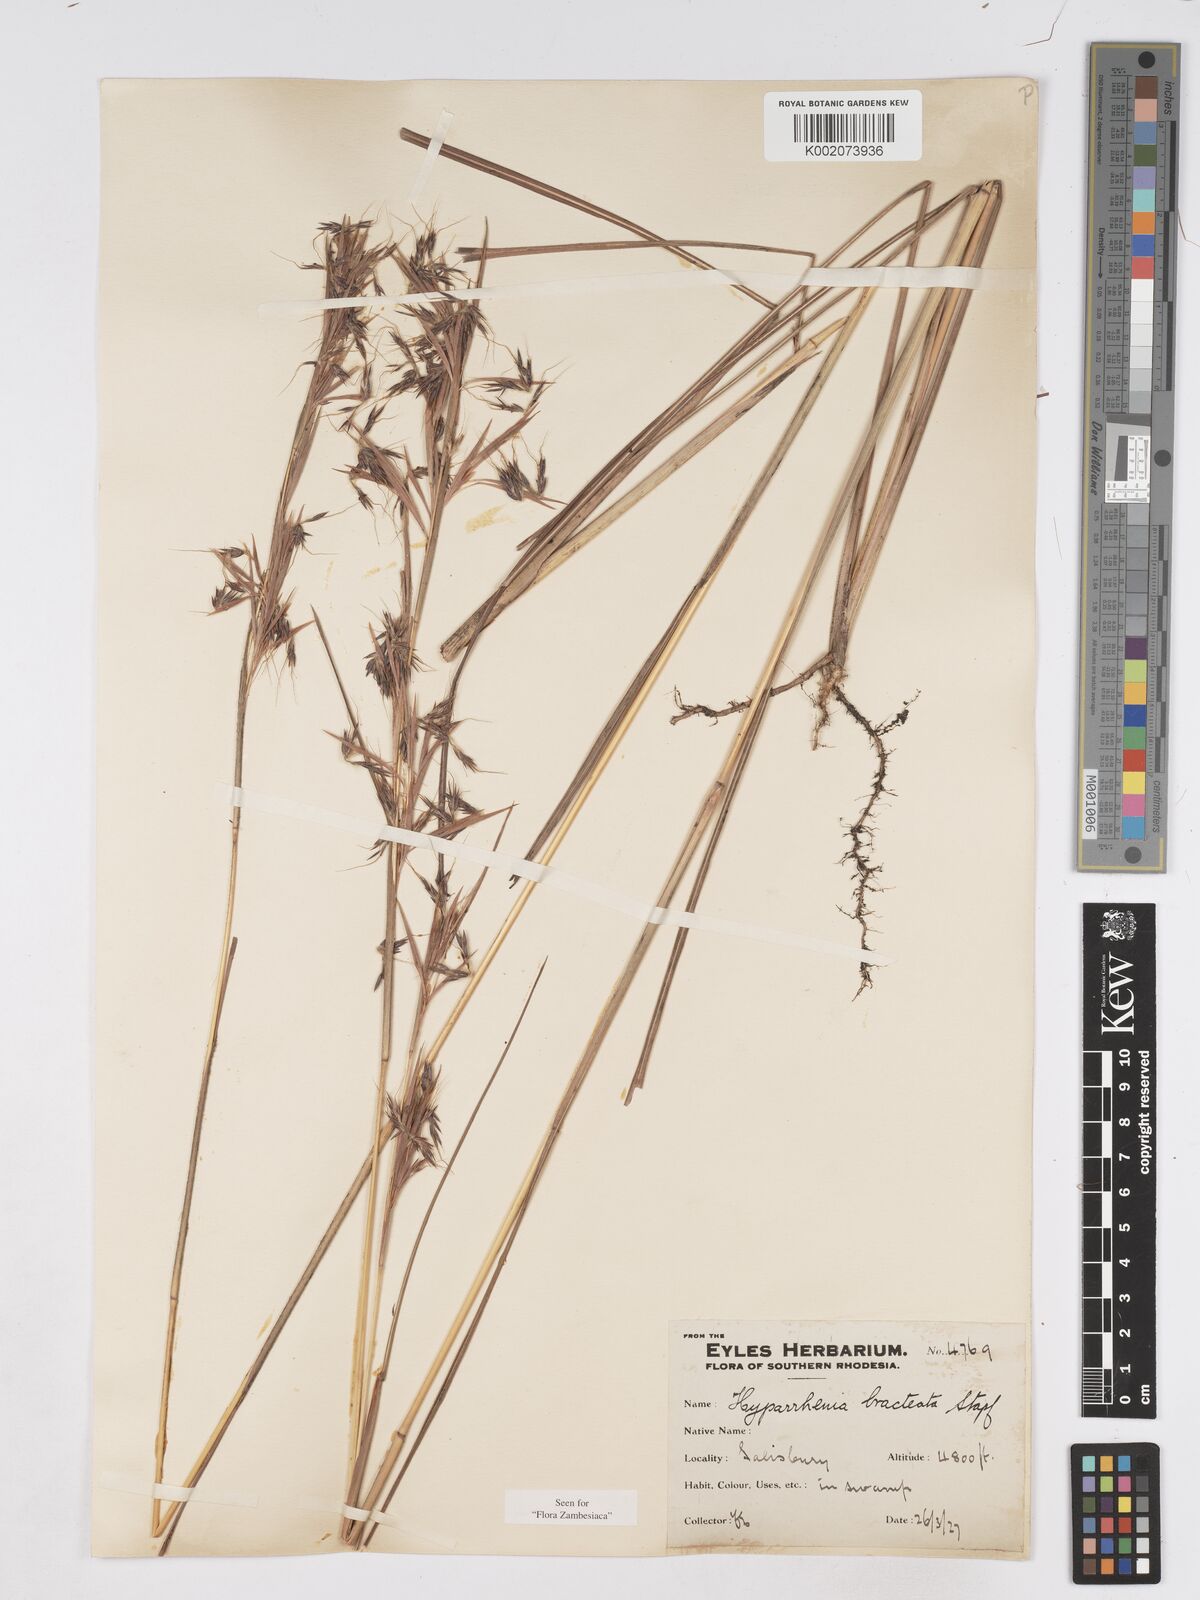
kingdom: Plantae
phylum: Tracheophyta
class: Liliopsida
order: Poales
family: Poaceae
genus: Hyparrhenia
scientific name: Hyparrhenia bracteata
